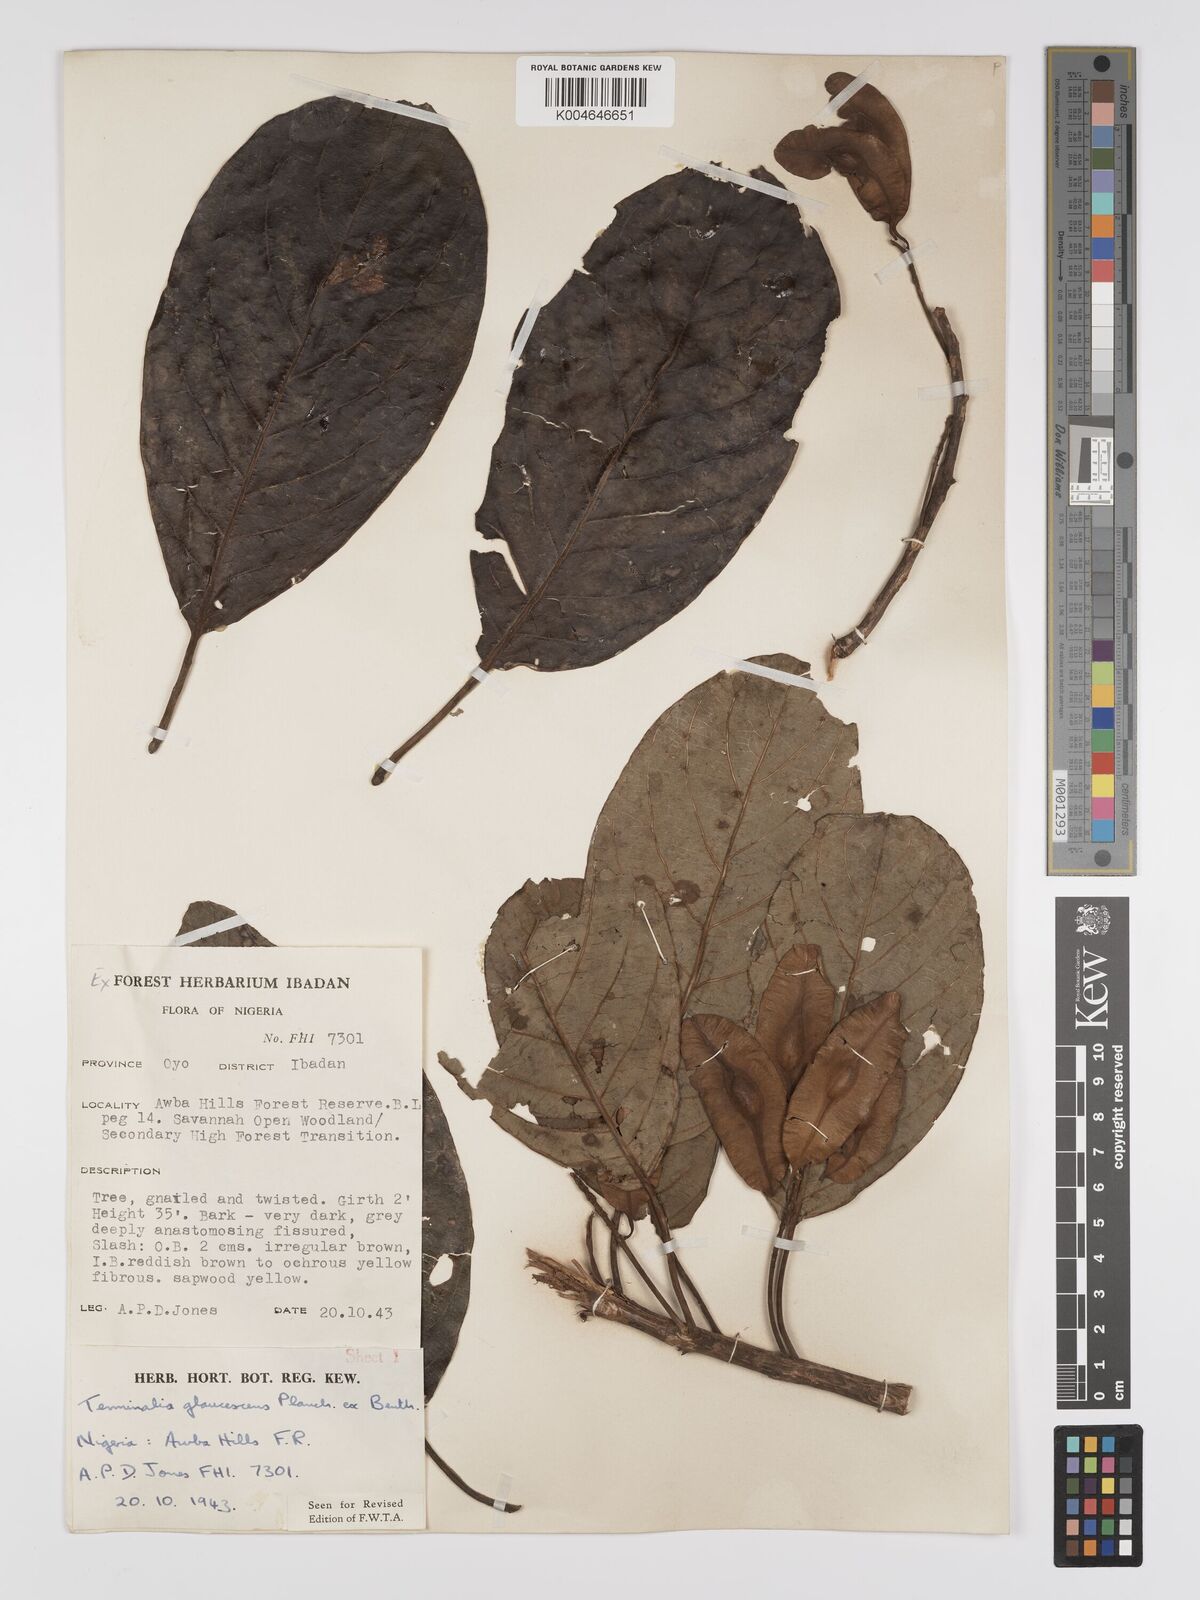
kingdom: Plantae
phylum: Tracheophyta
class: Magnoliopsida
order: Myrtales
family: Combretaceae
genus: Terminalia
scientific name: Terminalia schimperiana
